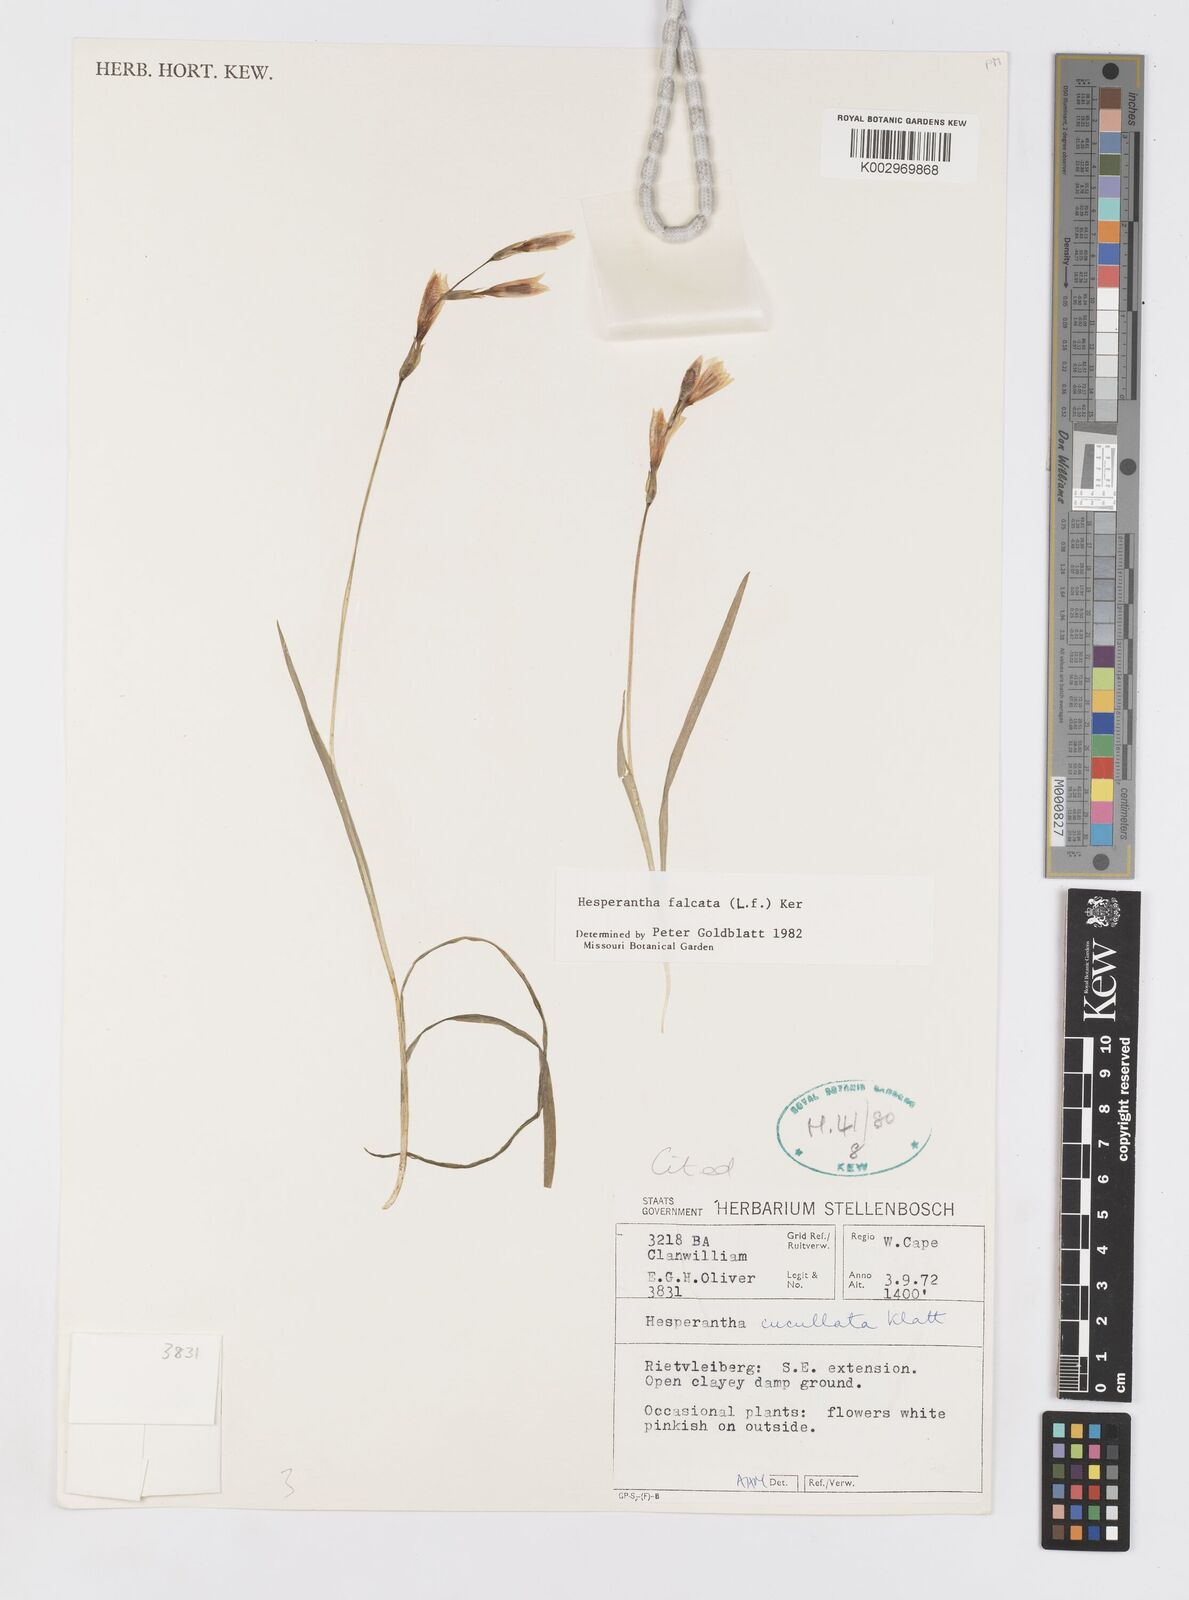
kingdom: Plantae
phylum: Tracheophyta
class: Liliopsida
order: Asparagales
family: Iridaceae
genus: Hesperantha
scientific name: Hesperantha falcata
